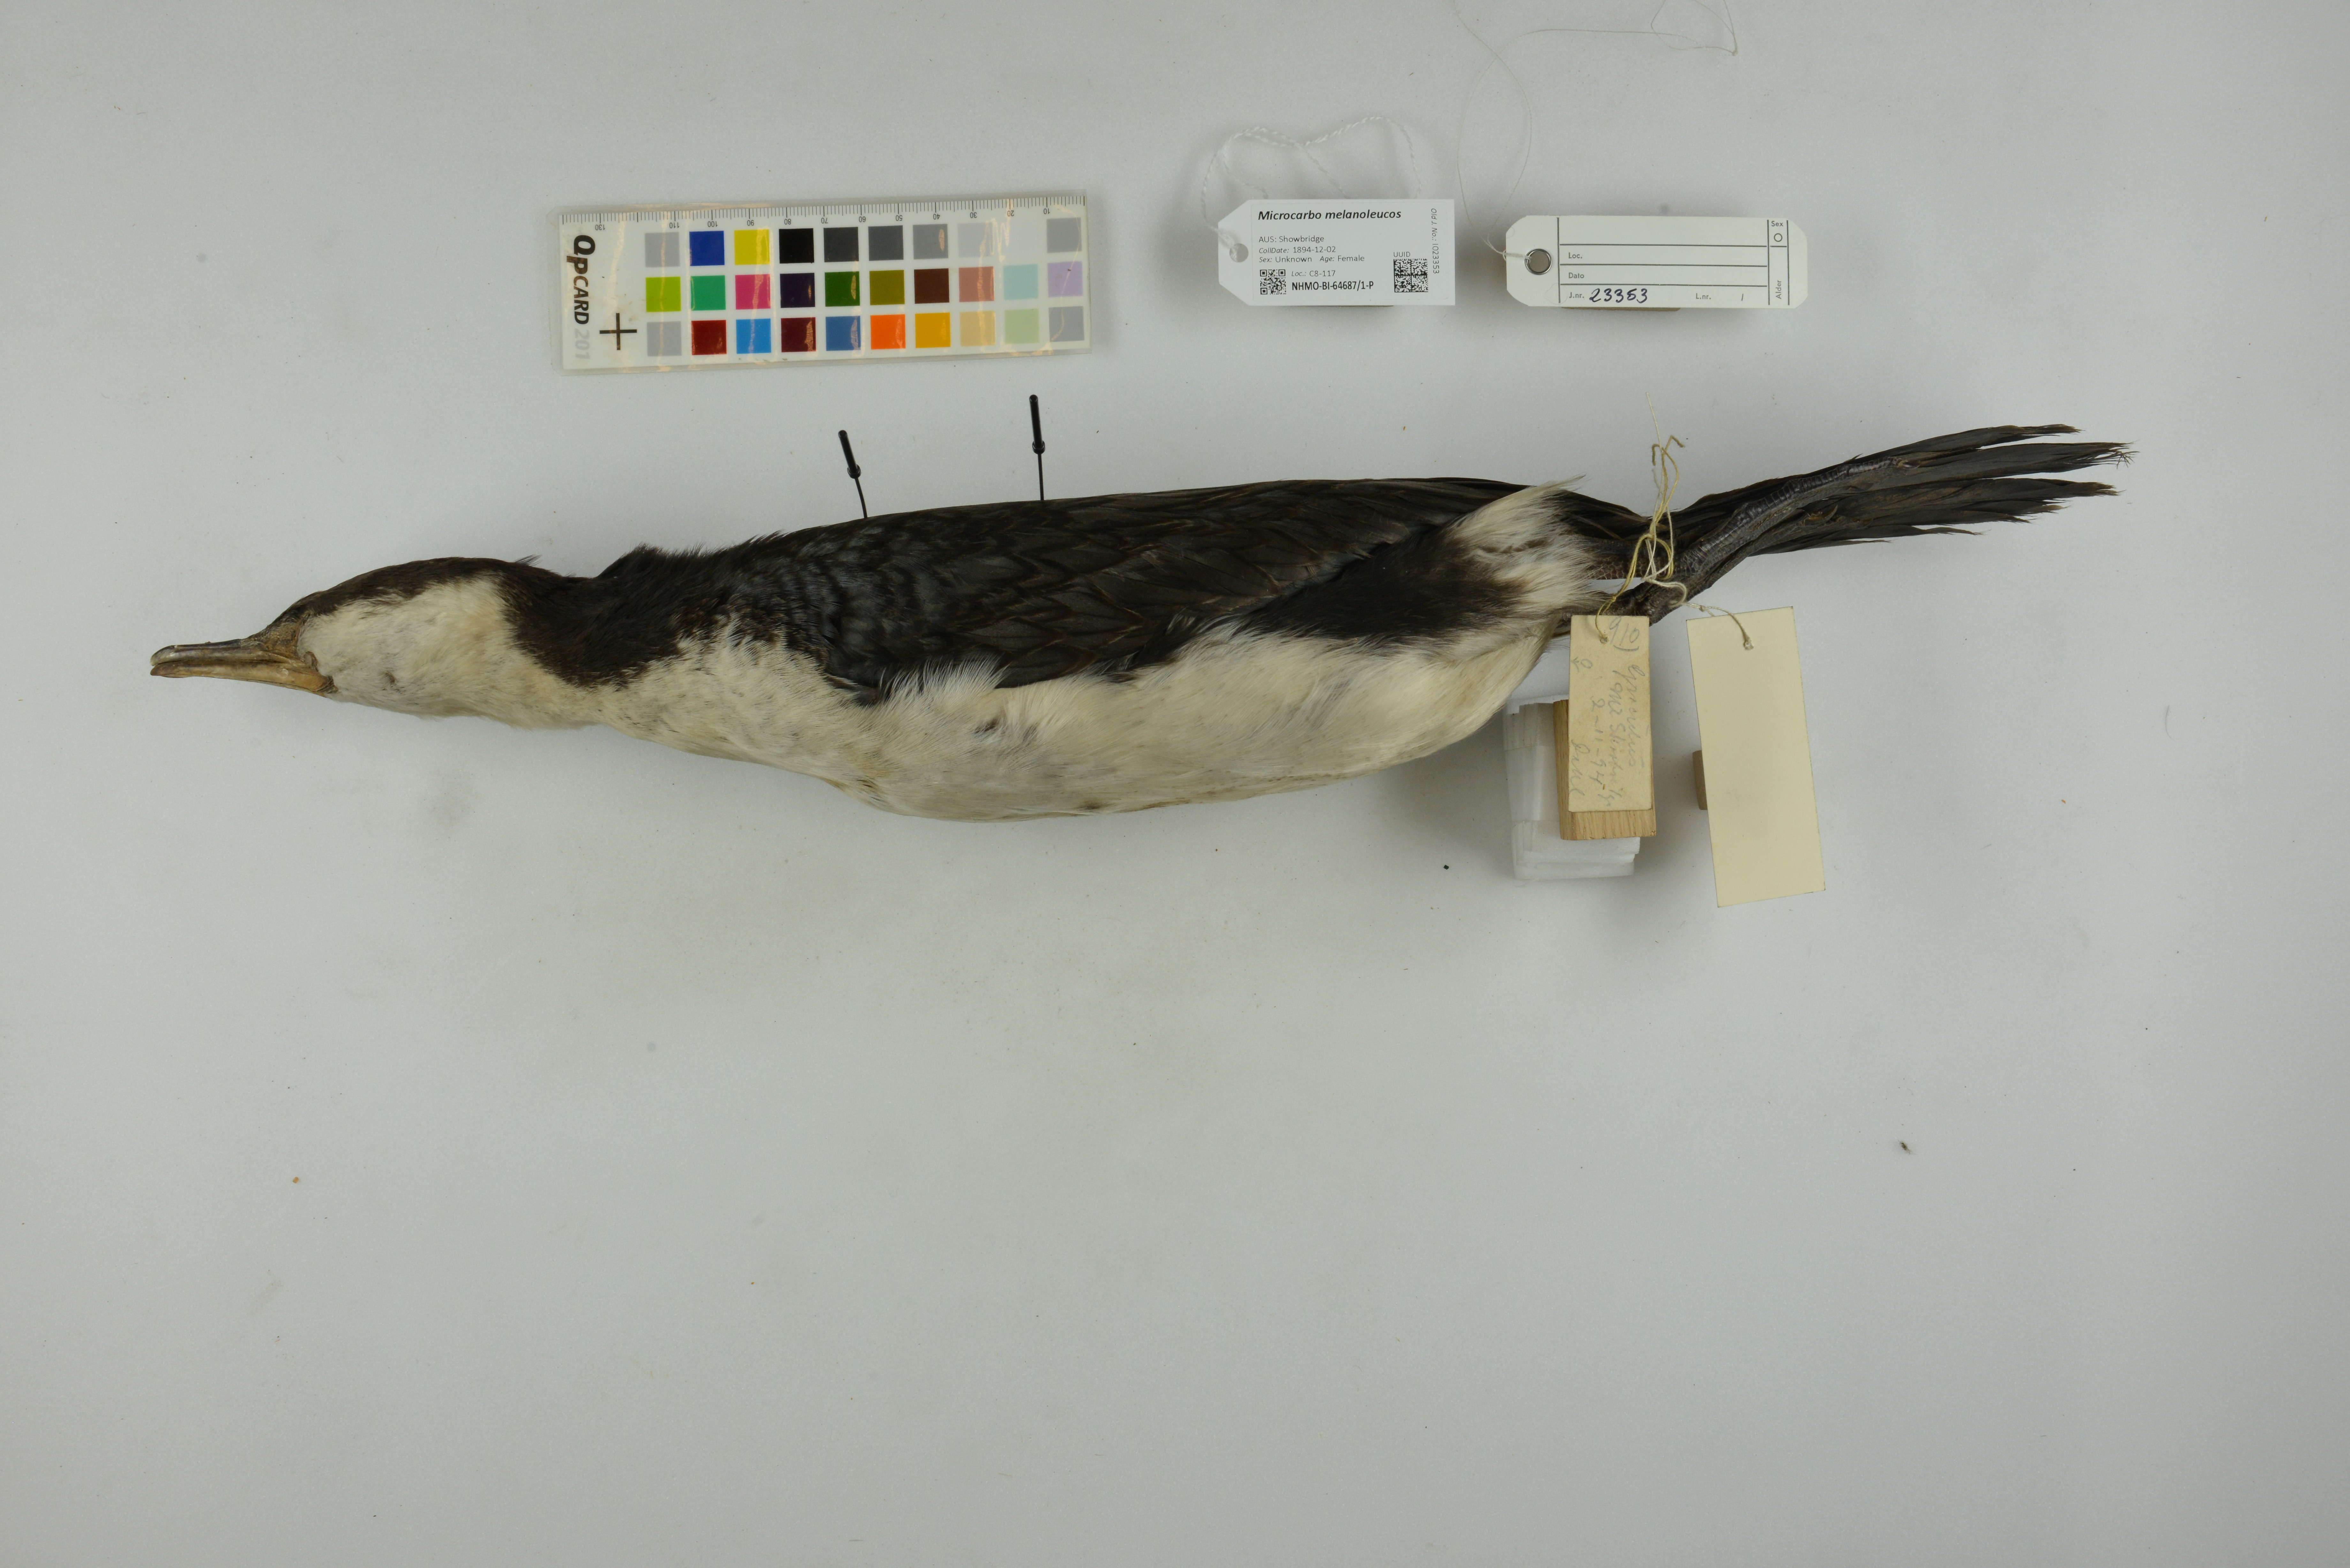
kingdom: Animalia
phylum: Chordata
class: Aves
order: Suliformes
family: Phalacrocoracidae
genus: Microcarbo
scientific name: Microcarbo melanoleucos
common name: Little pied cormorant
